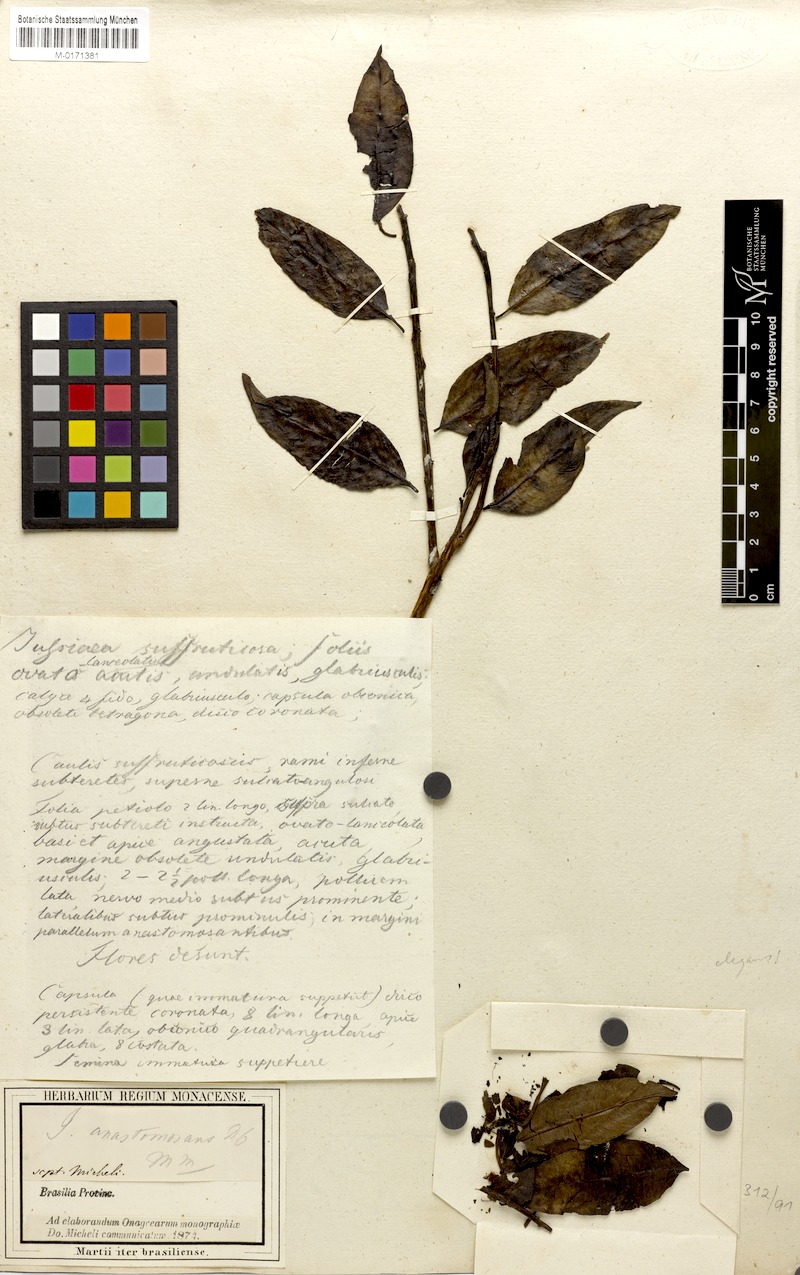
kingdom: Plantae
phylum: Tracheophyta
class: Magnoliopsida
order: Myrtales
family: Onagraceae
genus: Ludwigia
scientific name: Ludwigia anastomosans
